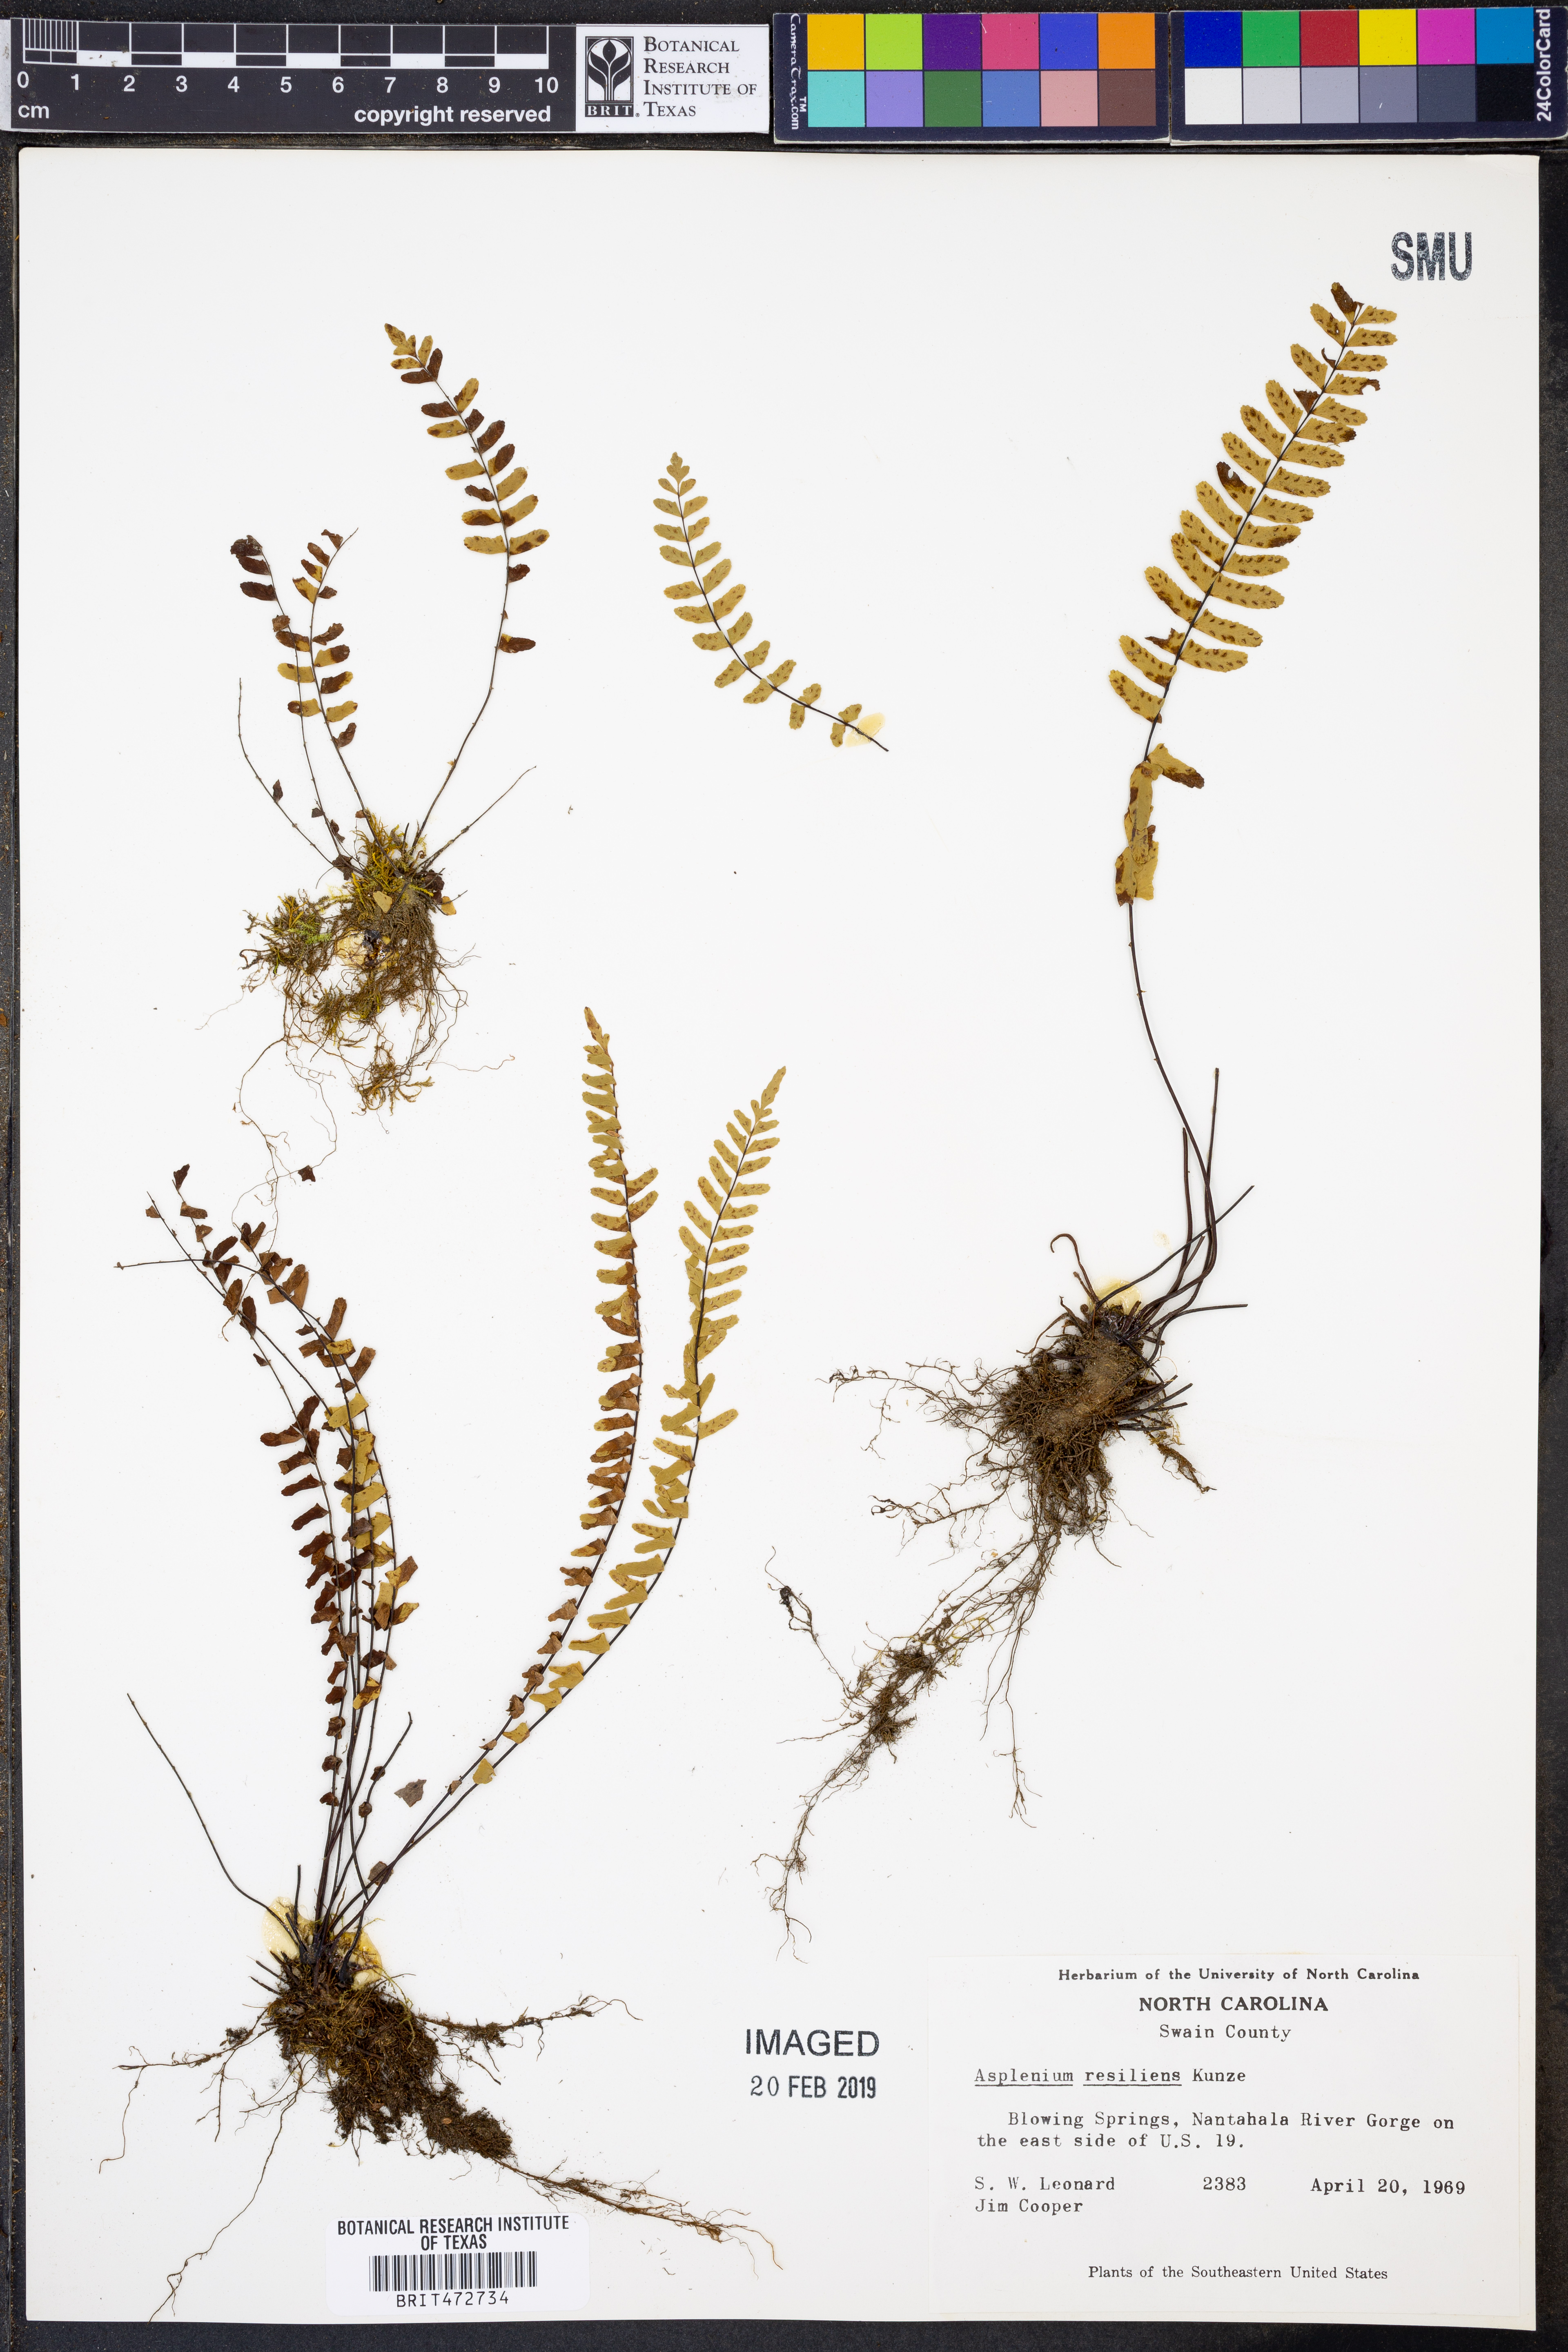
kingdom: Plantae
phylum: Tracheophyta
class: Polypodiopsida
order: Polypodiales
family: Aspleniaceae
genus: Asplenium
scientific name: Asplenium resiliens
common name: Blackstem spleenwort
